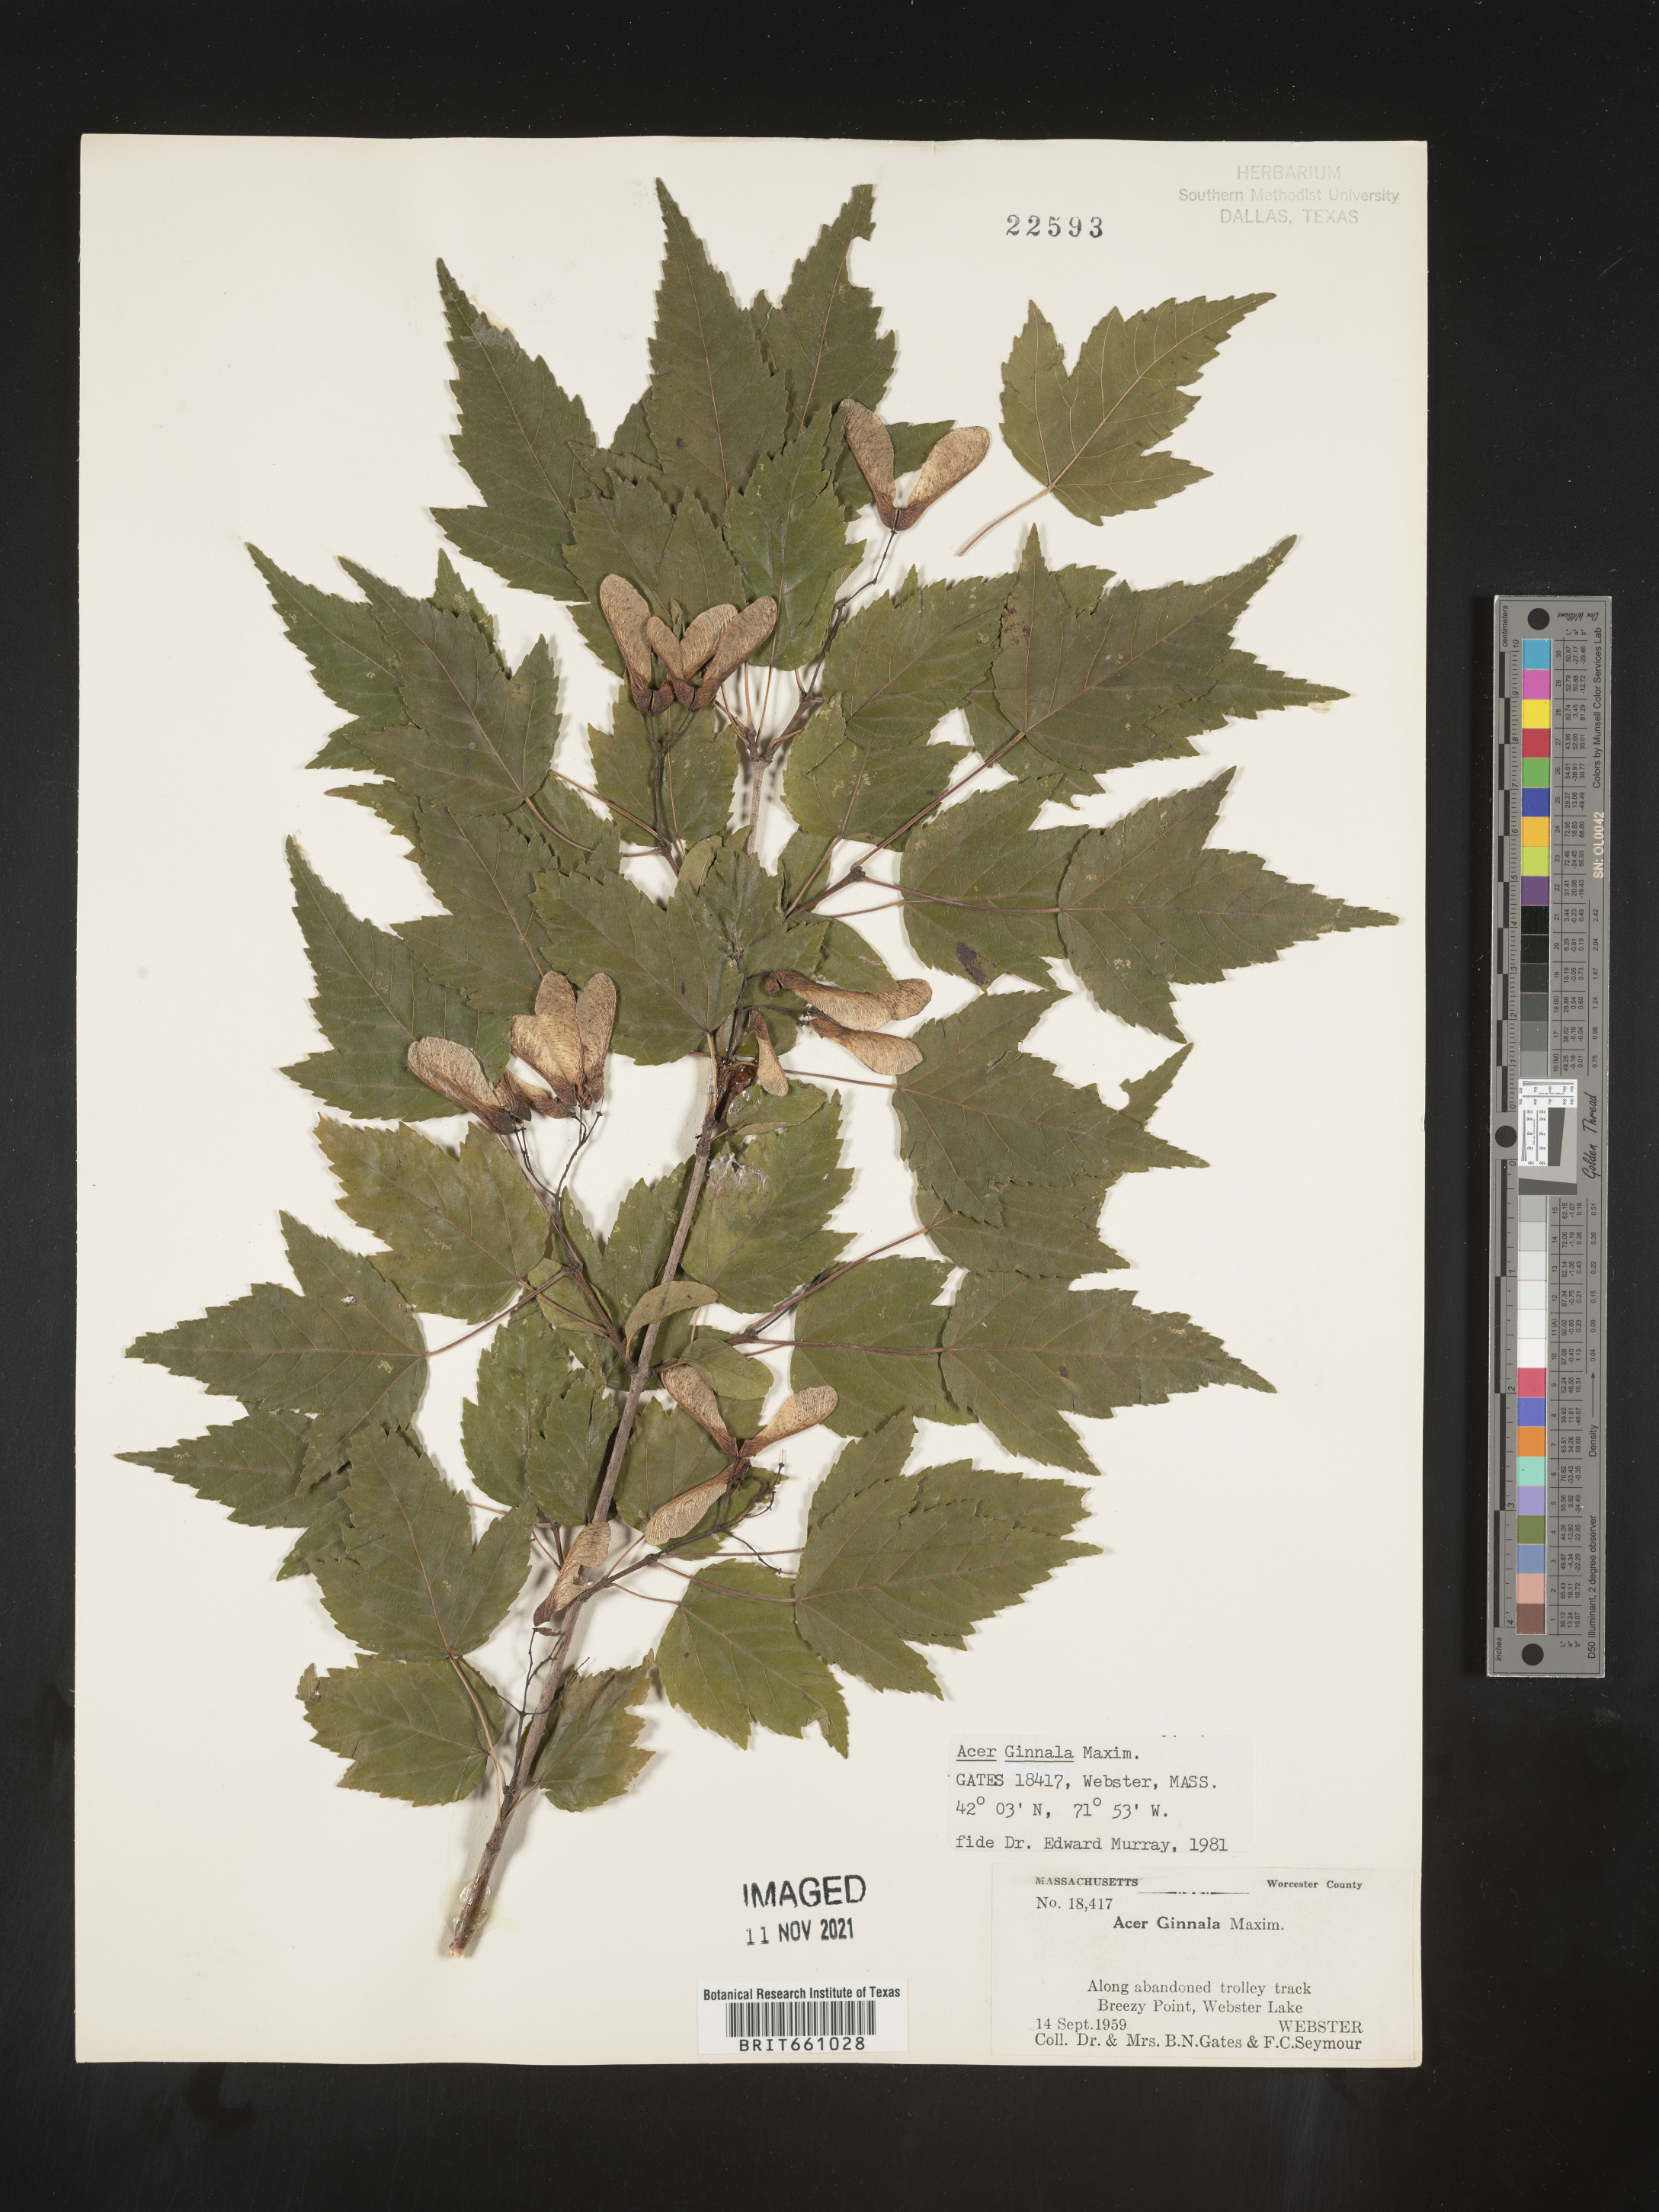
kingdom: Plantae
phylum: Tracheophyta
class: Magnoliopsida
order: Sapindales
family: Sapindaceae
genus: Acer
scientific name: Acer
